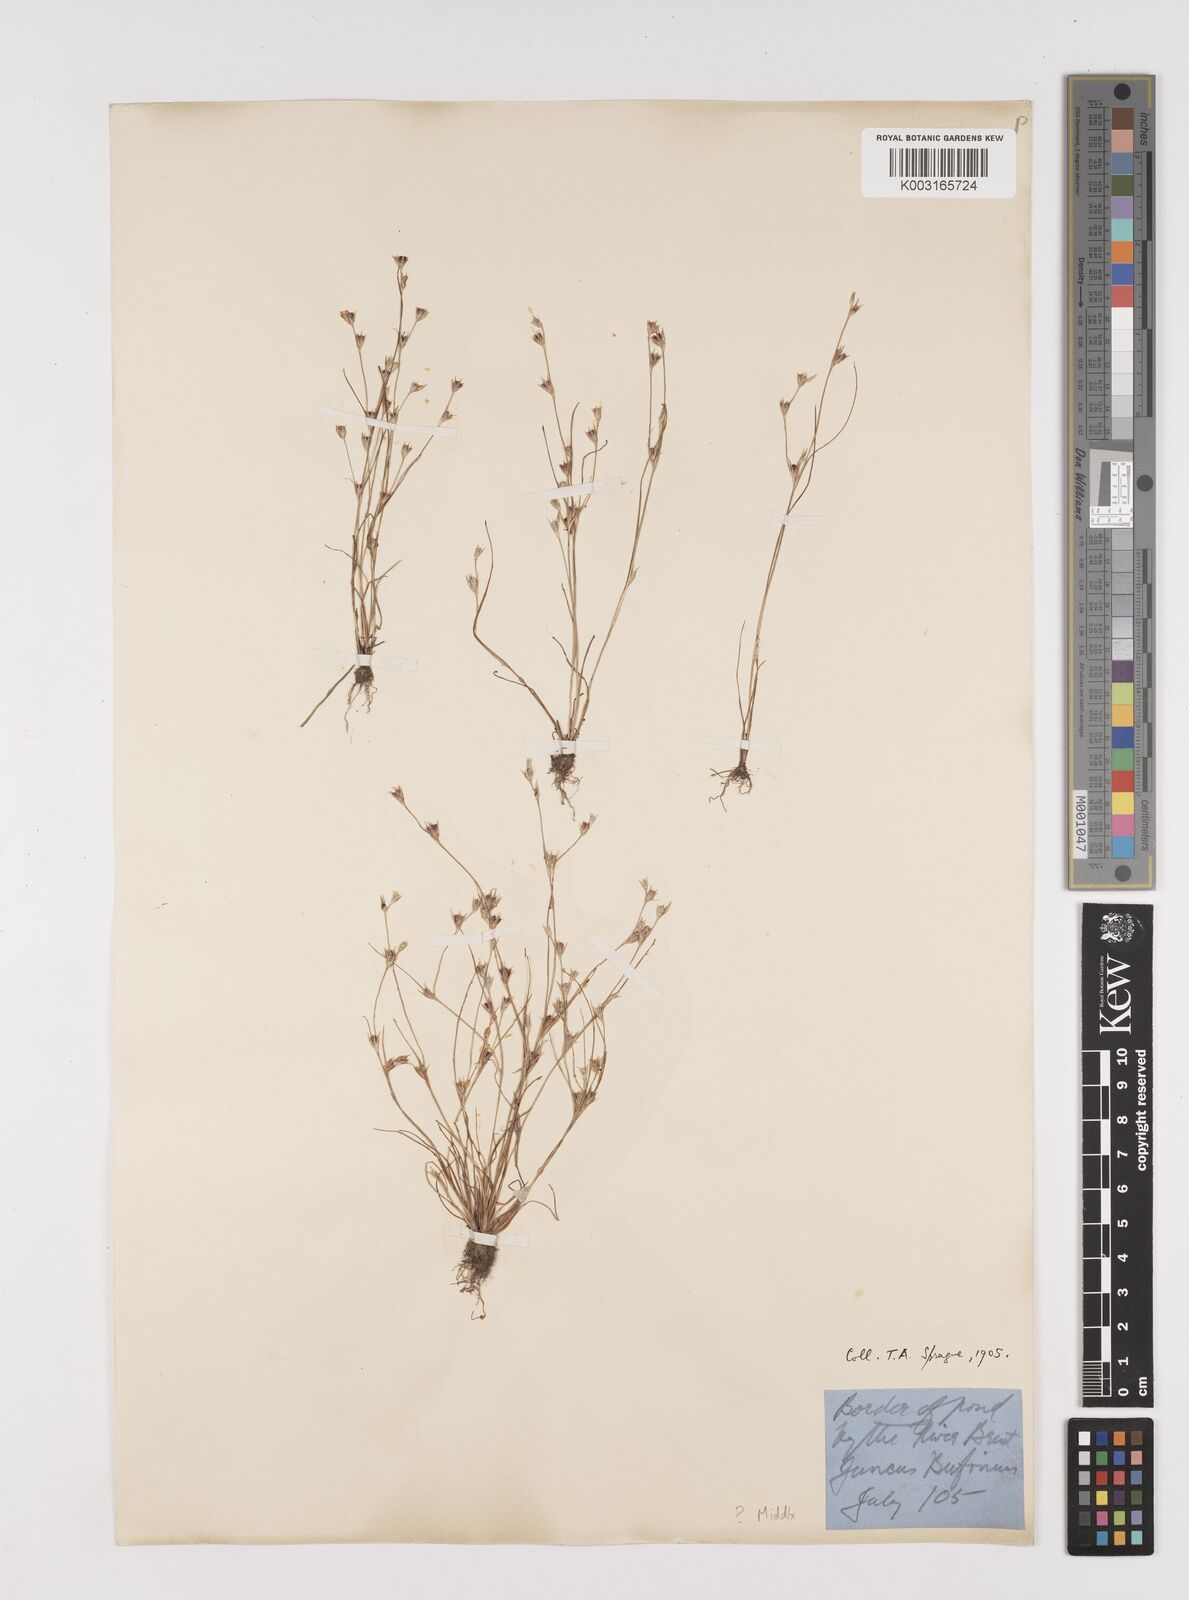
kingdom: Plantae
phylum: Tracheophyta
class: Liliopsida
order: Poales
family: Juncaceae
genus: Juncus
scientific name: Juncus bufonius
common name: Toad rush
